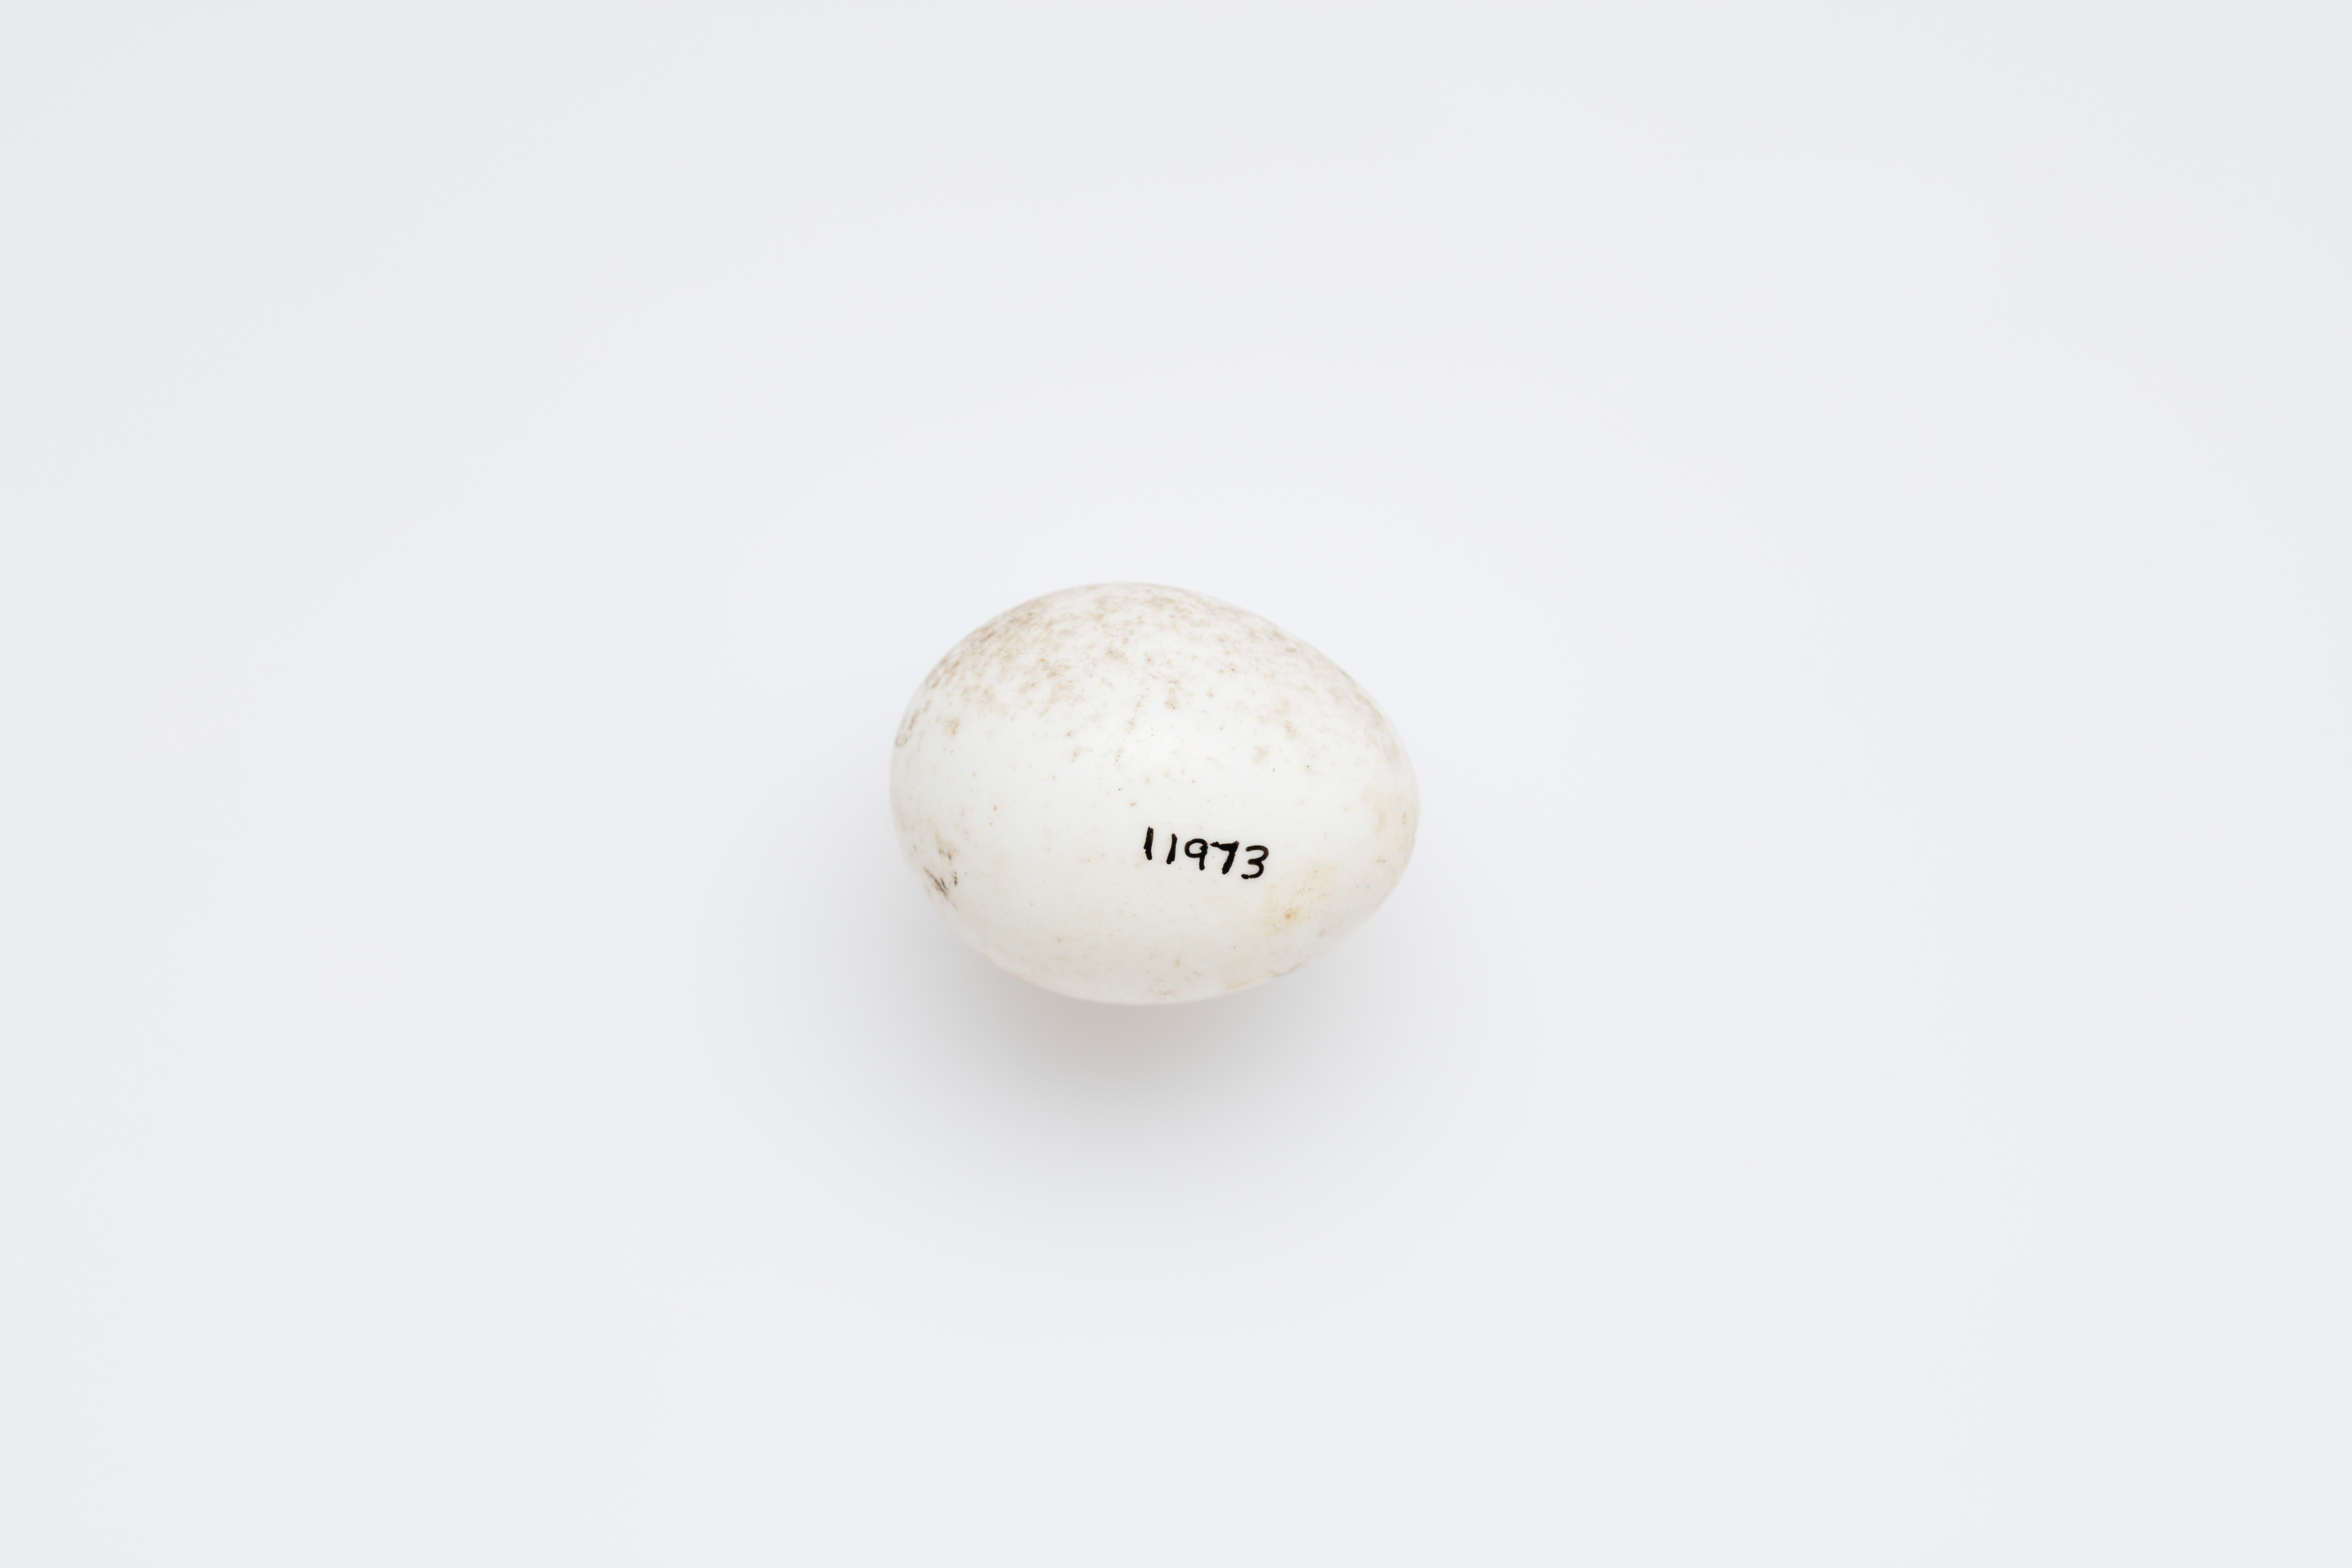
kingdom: Animalia
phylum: Chordata
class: Aves
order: Passeriformes
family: Orthonychidae
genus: Orthonyx
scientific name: Orthonyx spaldingii
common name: Chowchilla
